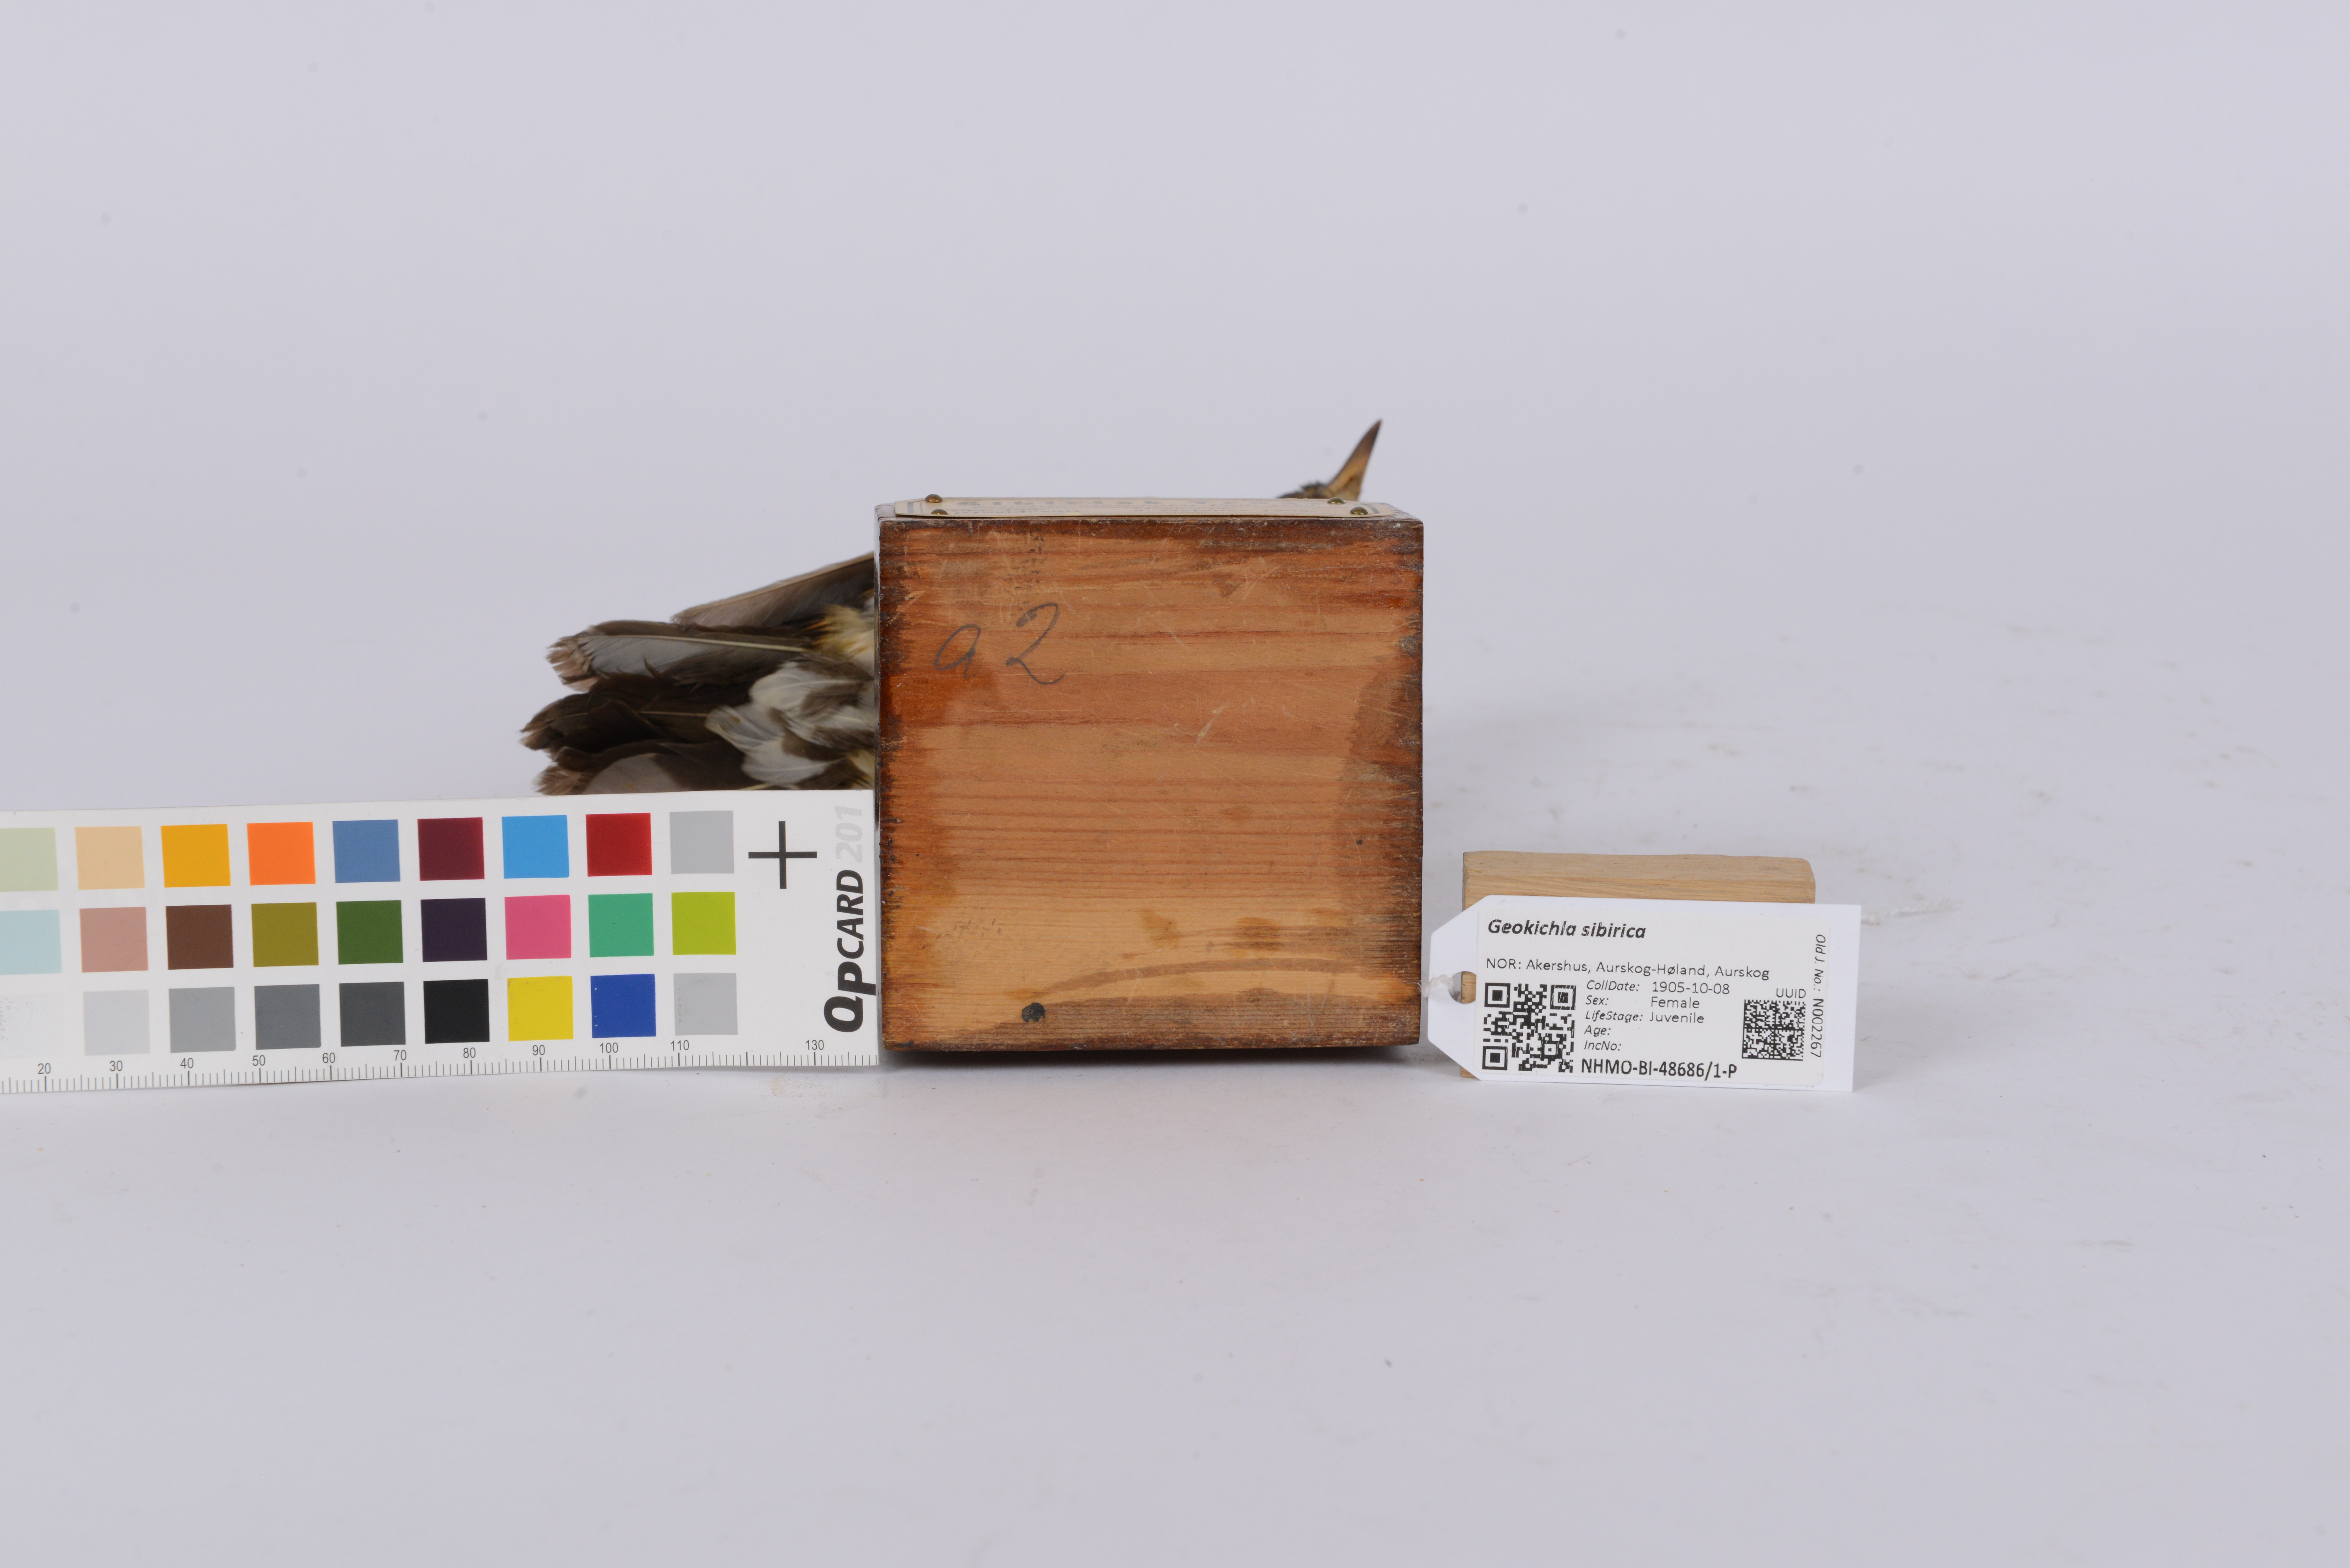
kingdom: Animalia
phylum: Chordata
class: Aves
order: Passeriformes
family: Turdidae
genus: Geokichla
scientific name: Geokichla sibirica
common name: Siberian thrush
